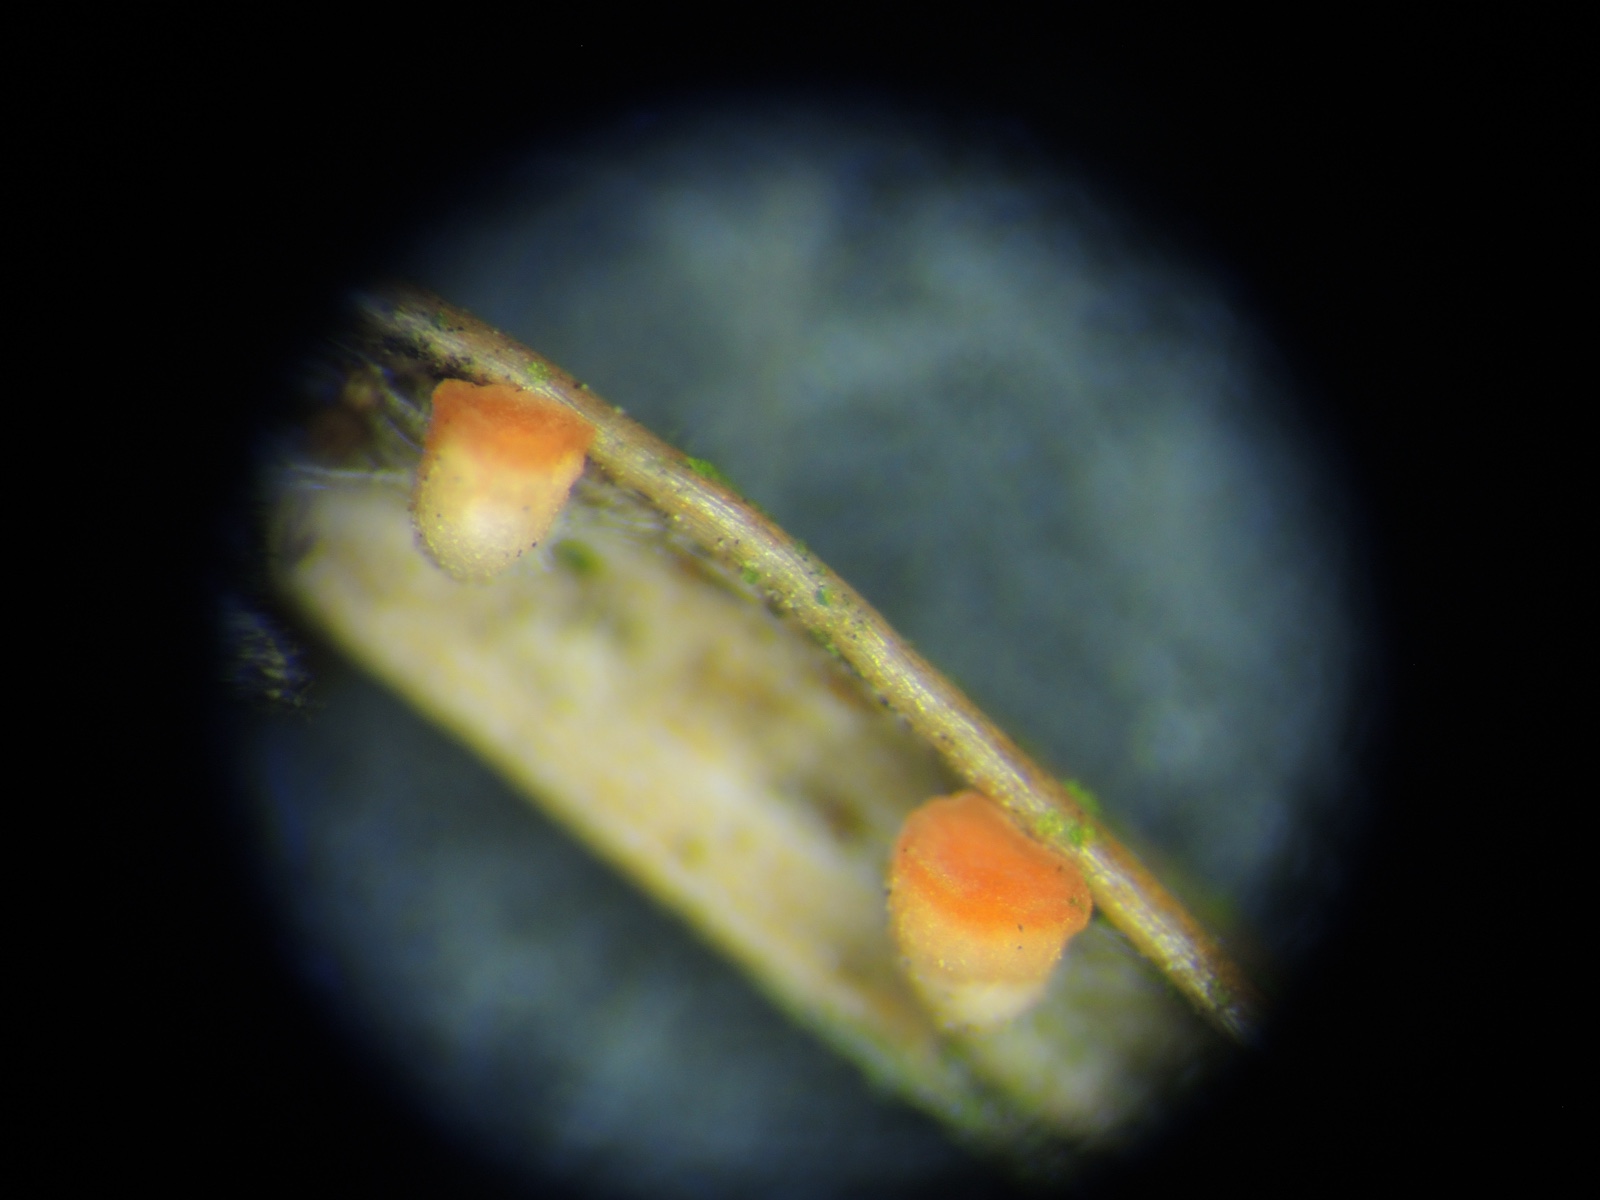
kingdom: Fungi
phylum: Ascomycota
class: Pezizomycetes
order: Pezizales
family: Sarcoscyphaceae
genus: Pithya
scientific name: Pithya cupressina
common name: lille dukatbæger
